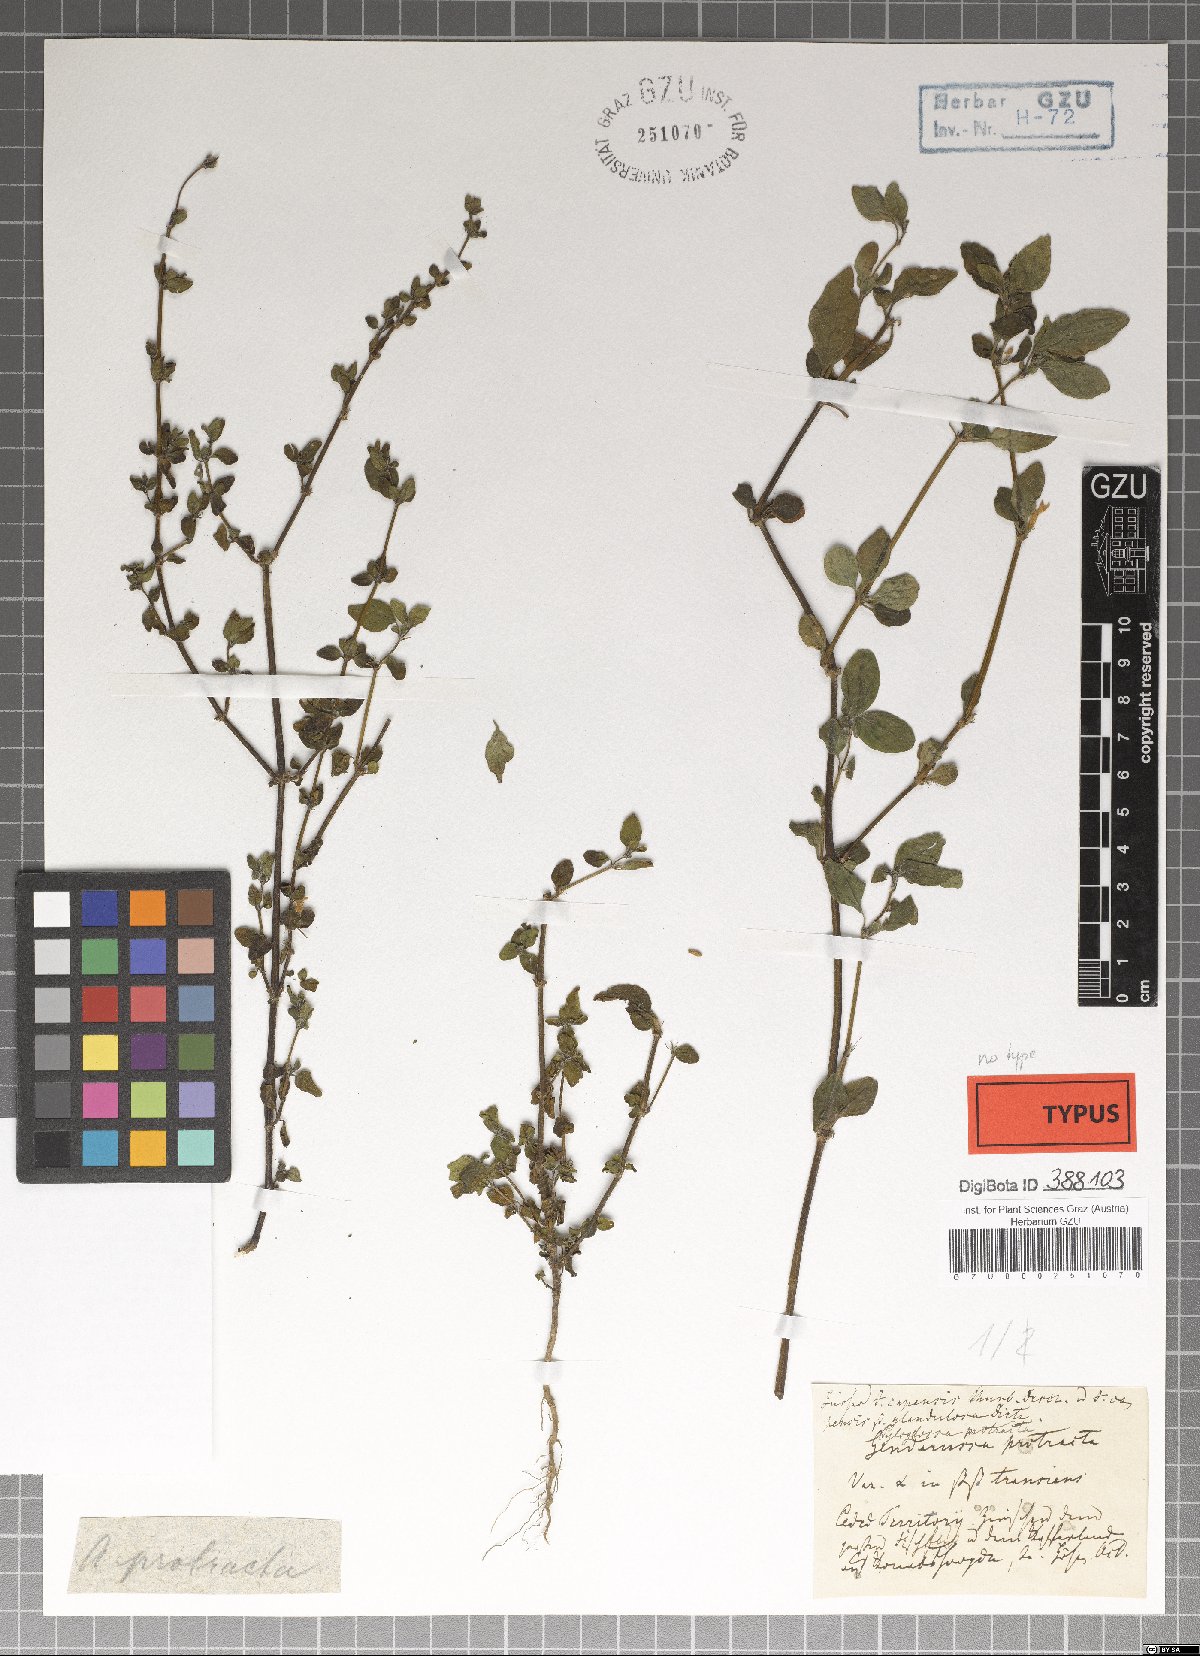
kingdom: Plantae
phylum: Tracheophyta
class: Magnoliopsida
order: Lamiales
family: Acanthaceae
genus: Justicia
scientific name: Justicia protracta
